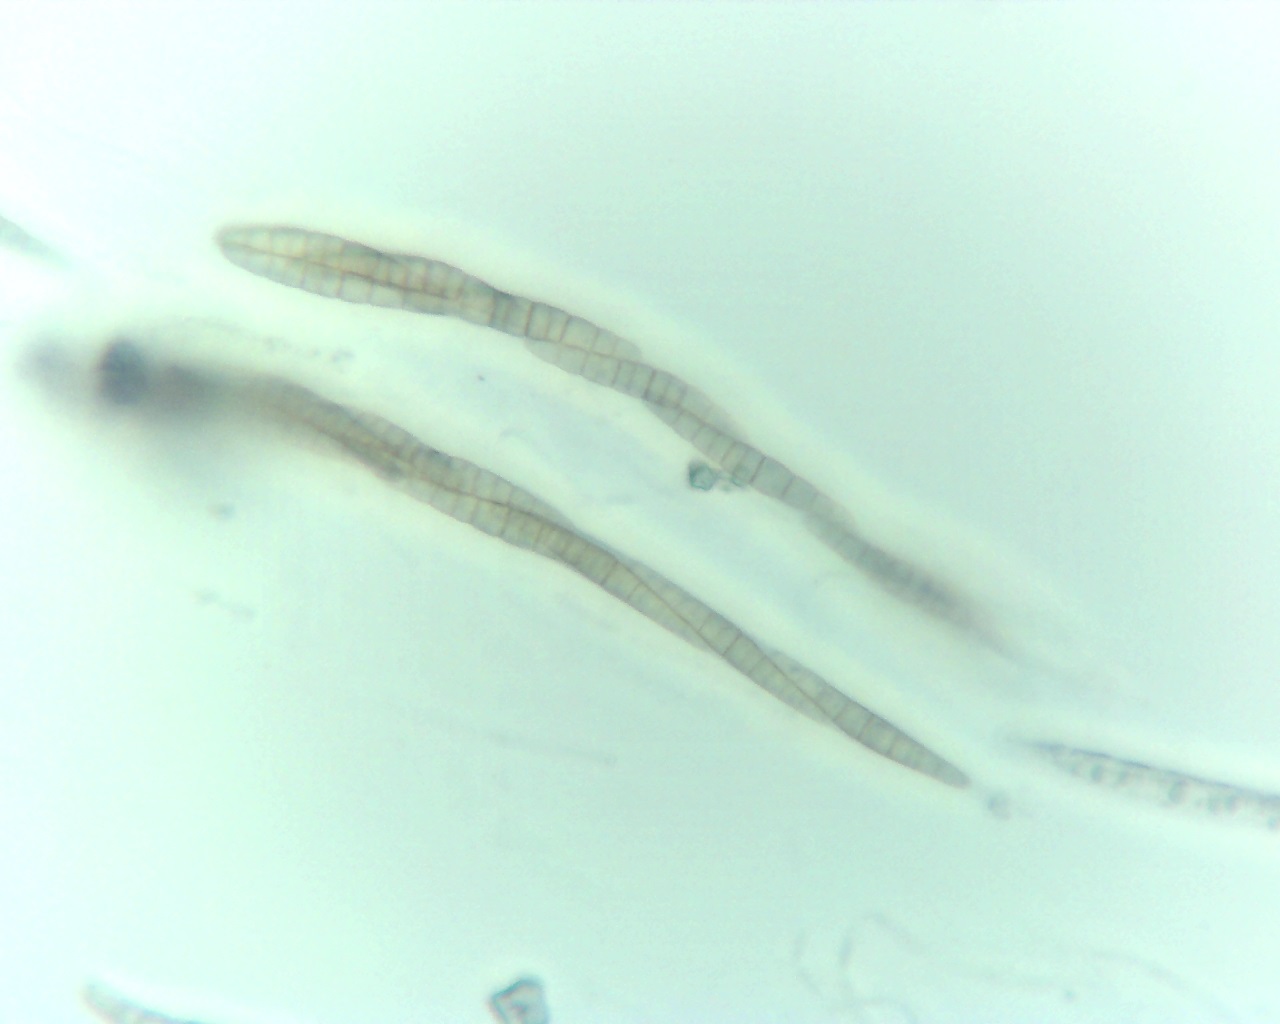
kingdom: Fungi
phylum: Ascomycota
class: Dothideomycetes
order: Pleosporales
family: Leptosphaeriaceae
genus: Leptosphaeria
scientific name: Leptosphaeria acuta
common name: spids kulkegle
